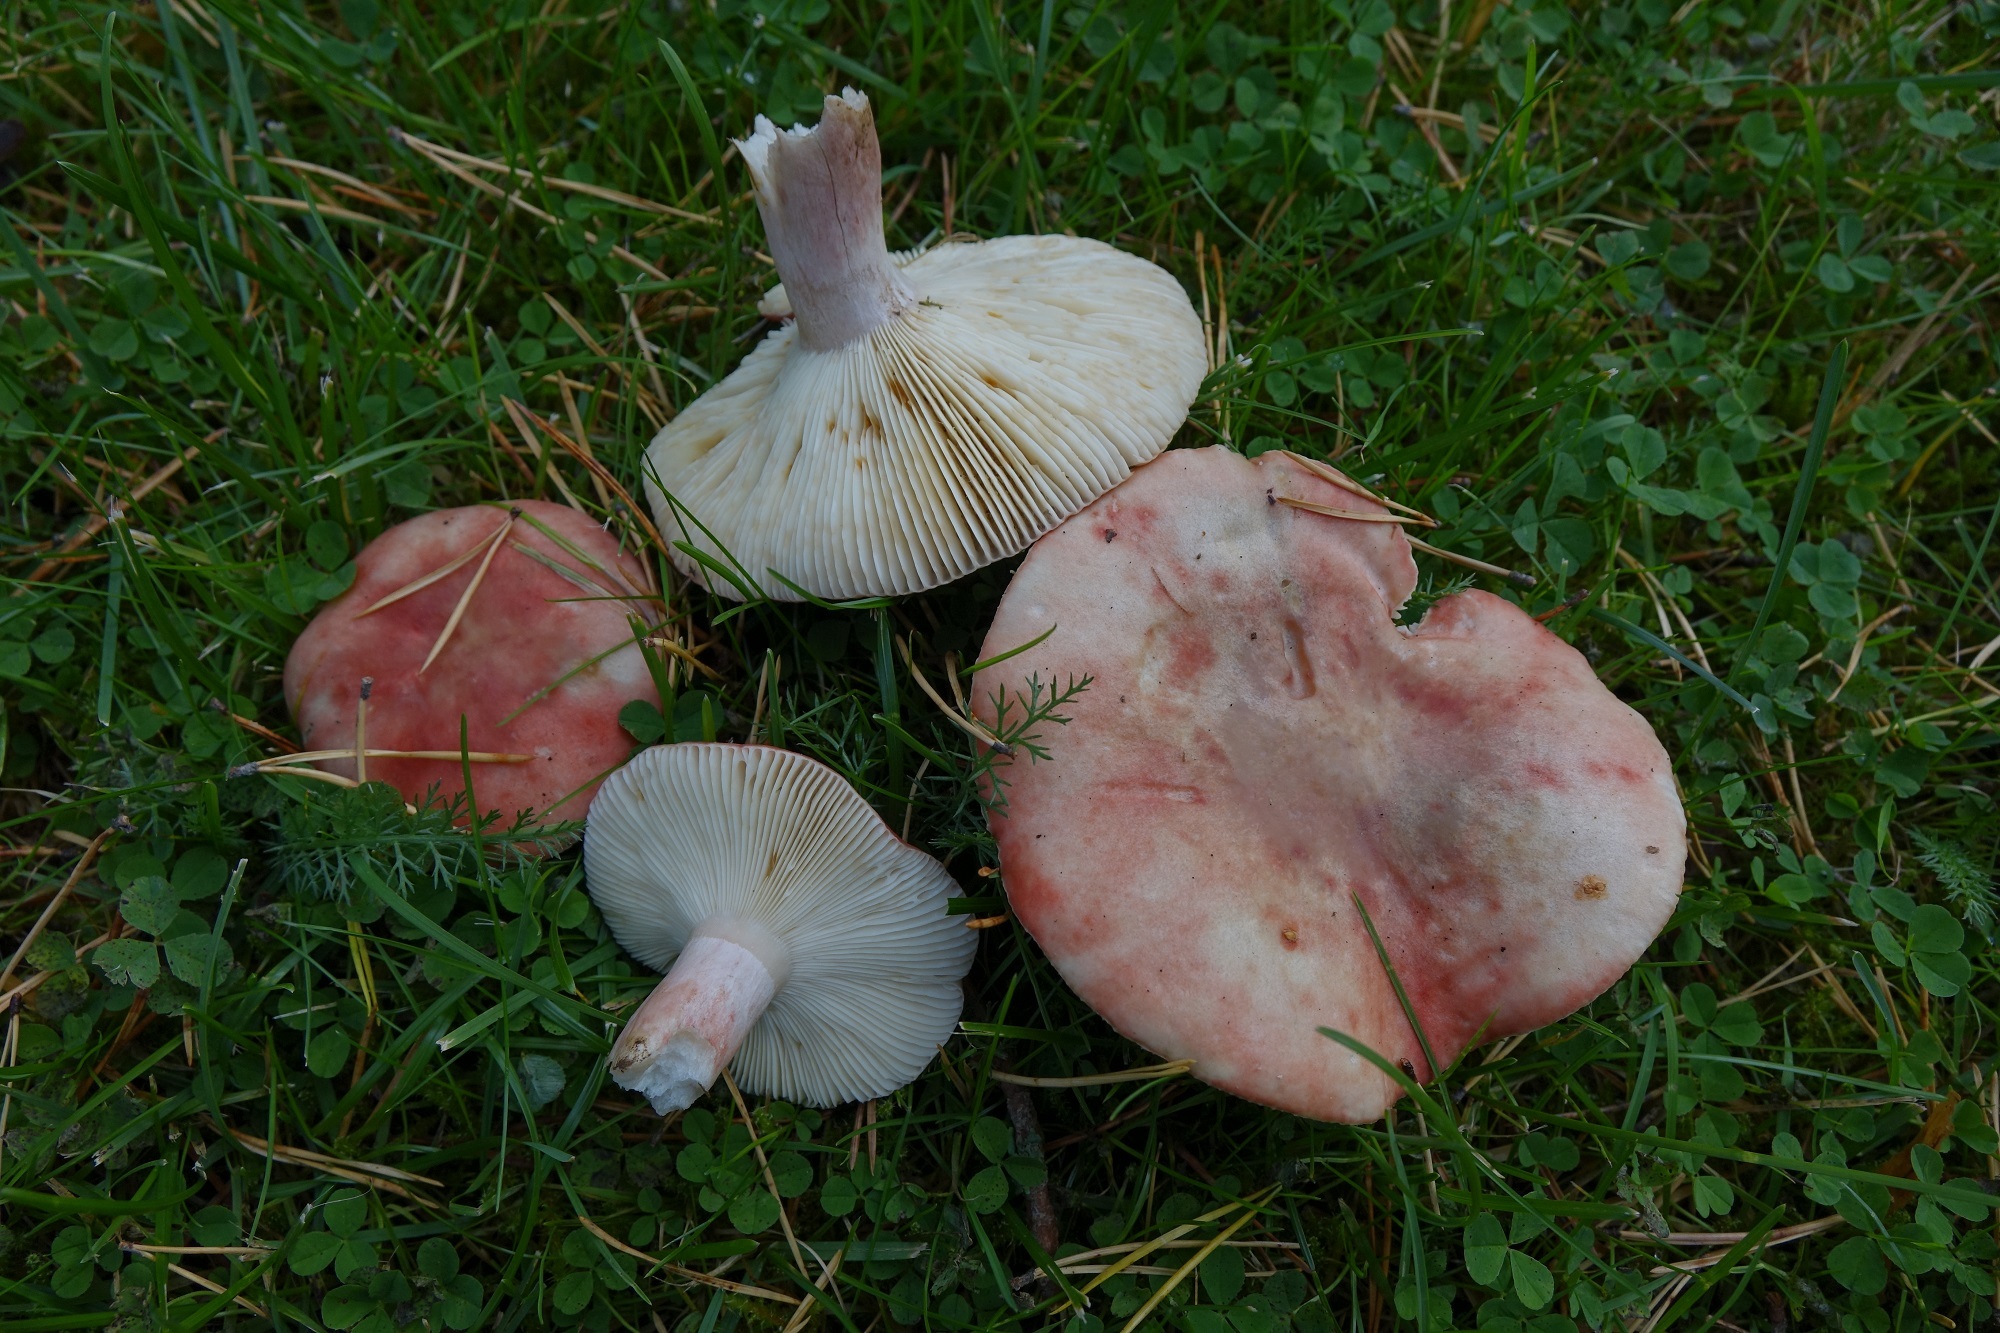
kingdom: Fungi
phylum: Basidiomycota
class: Agaricomycetes
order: Russulales
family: Russulaceae
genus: Russula
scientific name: Russula sanguinea
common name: Bloody brittlegill
